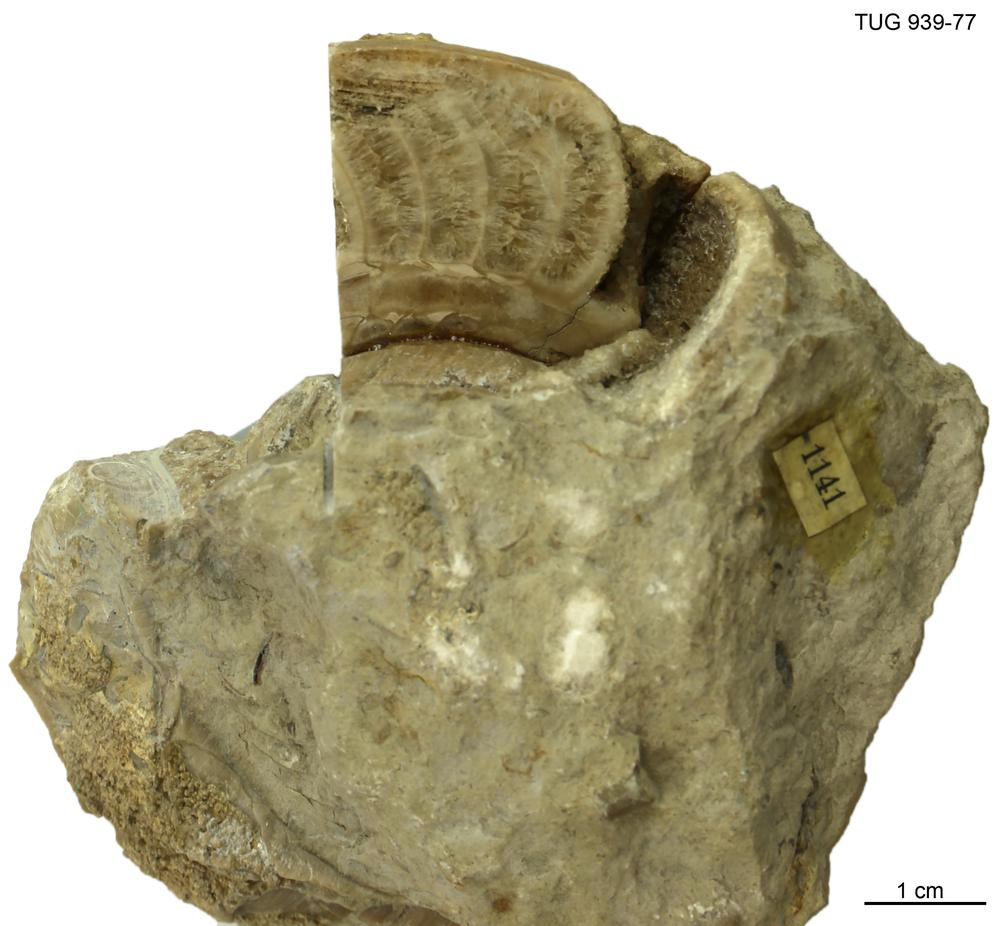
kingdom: Animalia
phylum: Mollusca
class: Cephalopoda
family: Trocholitidae
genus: Discoceras
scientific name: Discoceras
